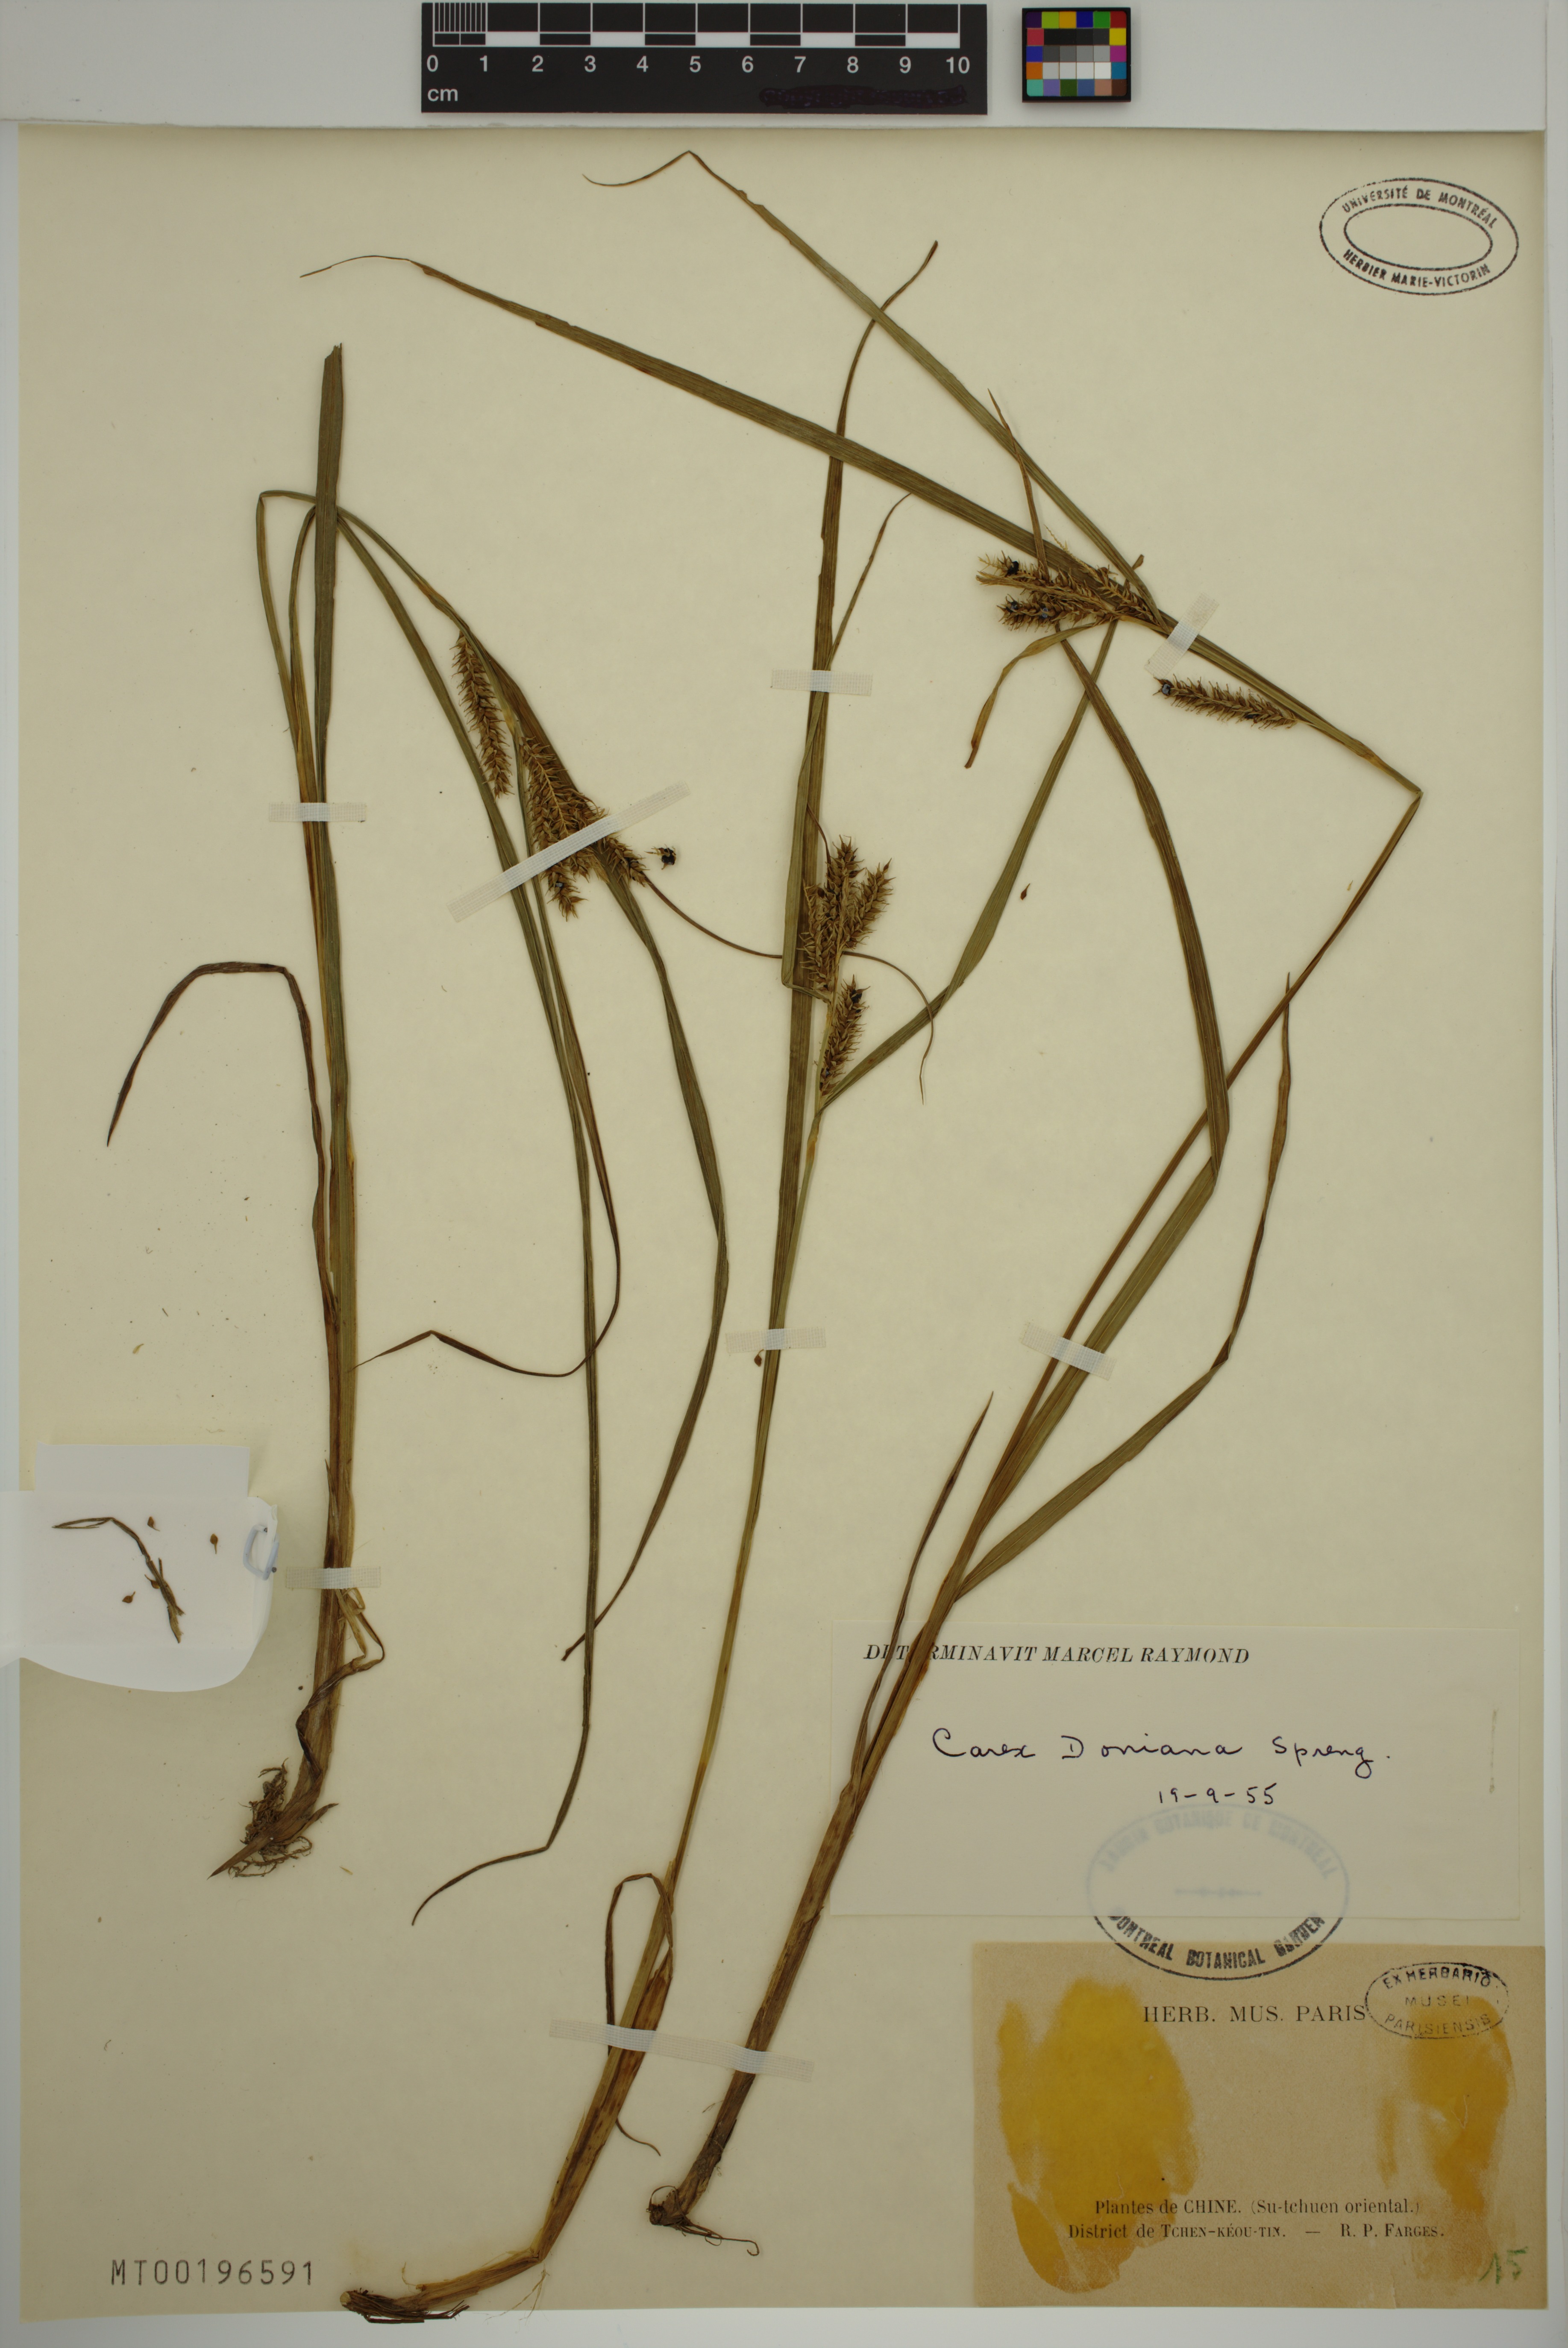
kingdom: Plantae
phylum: Tracheophyta
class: Liliopsida
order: Poales
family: Cyperaceae
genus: Carex
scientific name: Carex doniana
